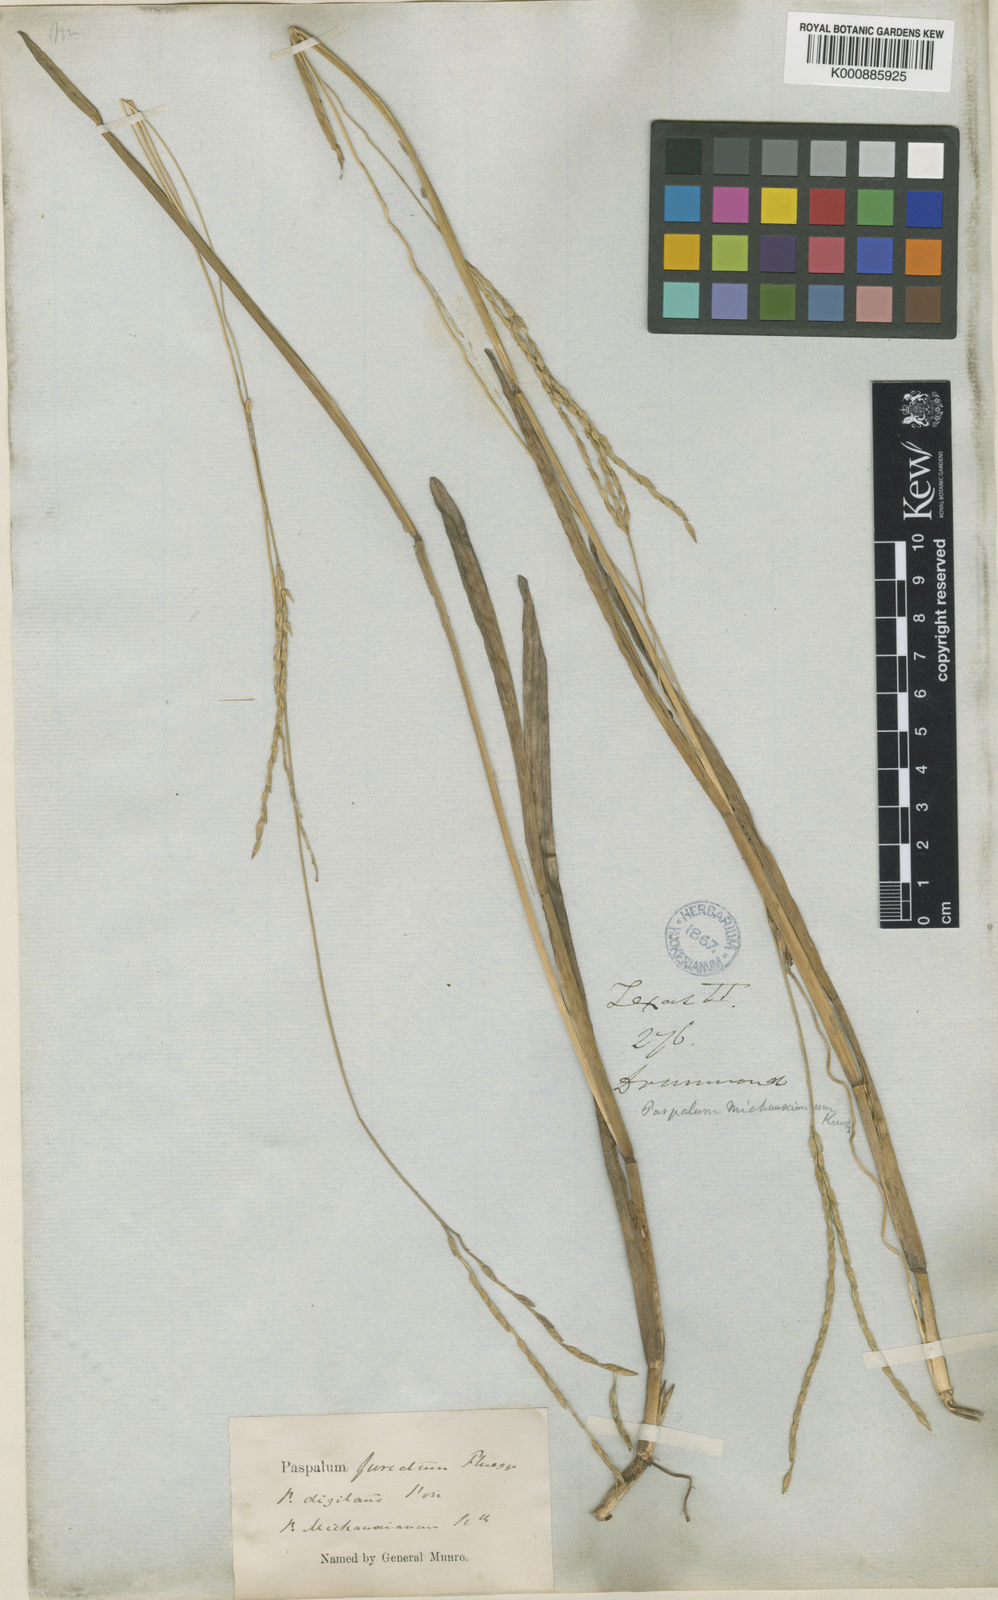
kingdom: Plantae
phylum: Tracheophyta
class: Liliopsida
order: Poales
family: Poaceae
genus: Axonopus
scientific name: Axonopus
